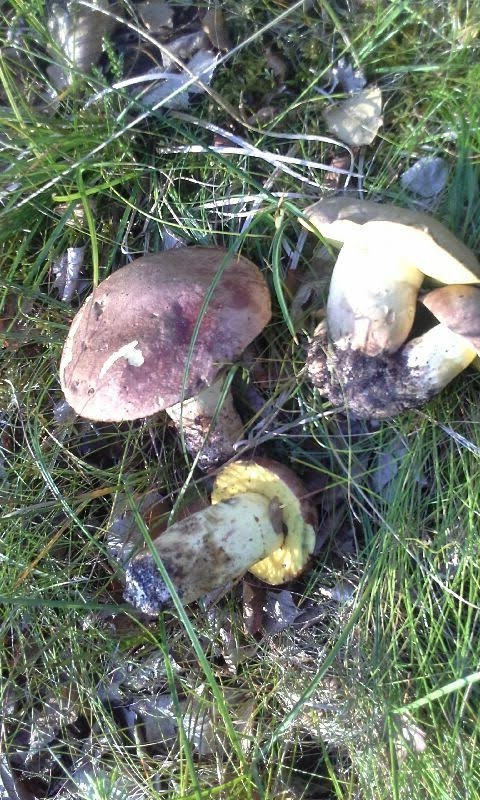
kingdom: Fungi
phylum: Basidiomycota
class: Agaricomycetes
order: Boletales
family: Boletaceae
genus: Butyriboletus
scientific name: Butyriboletus appendiculatus
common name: tenstokket rørhat
